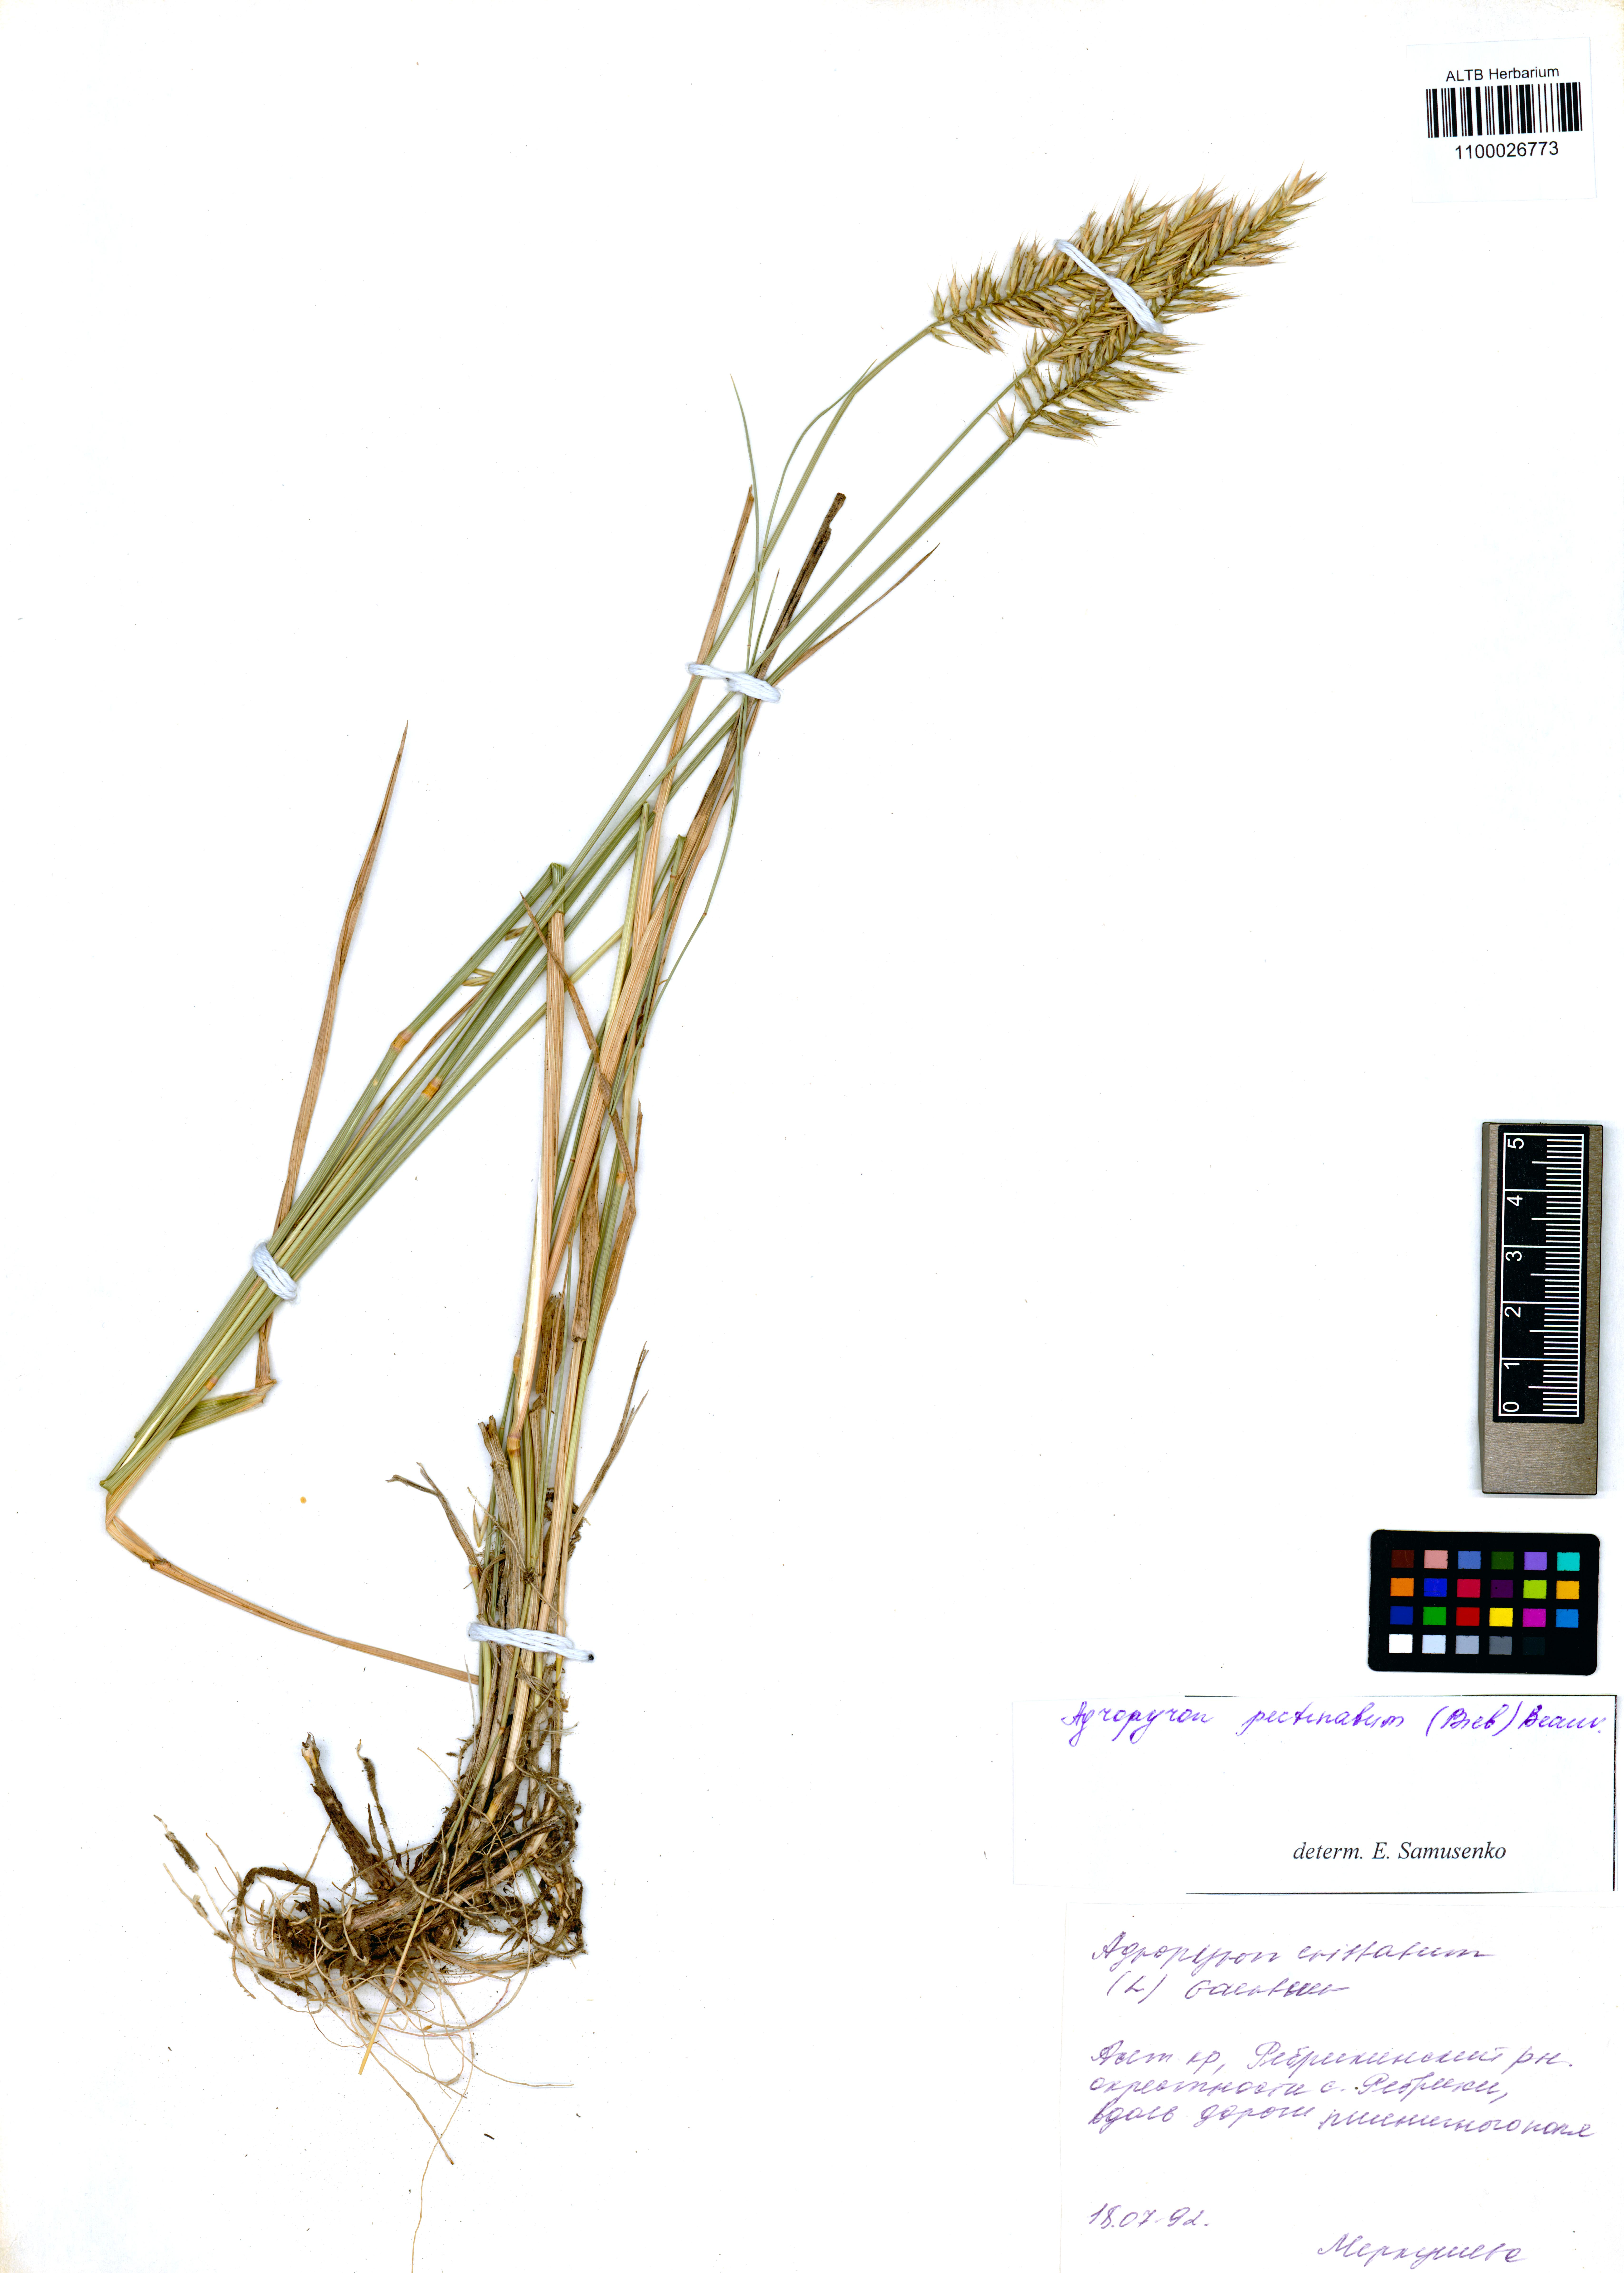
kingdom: Plantae
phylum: Tracheophyta
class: Liliopsida
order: Poales
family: Poaceae
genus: Agropyron
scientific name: Agropyron cristatum
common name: Crested wheatgrass
